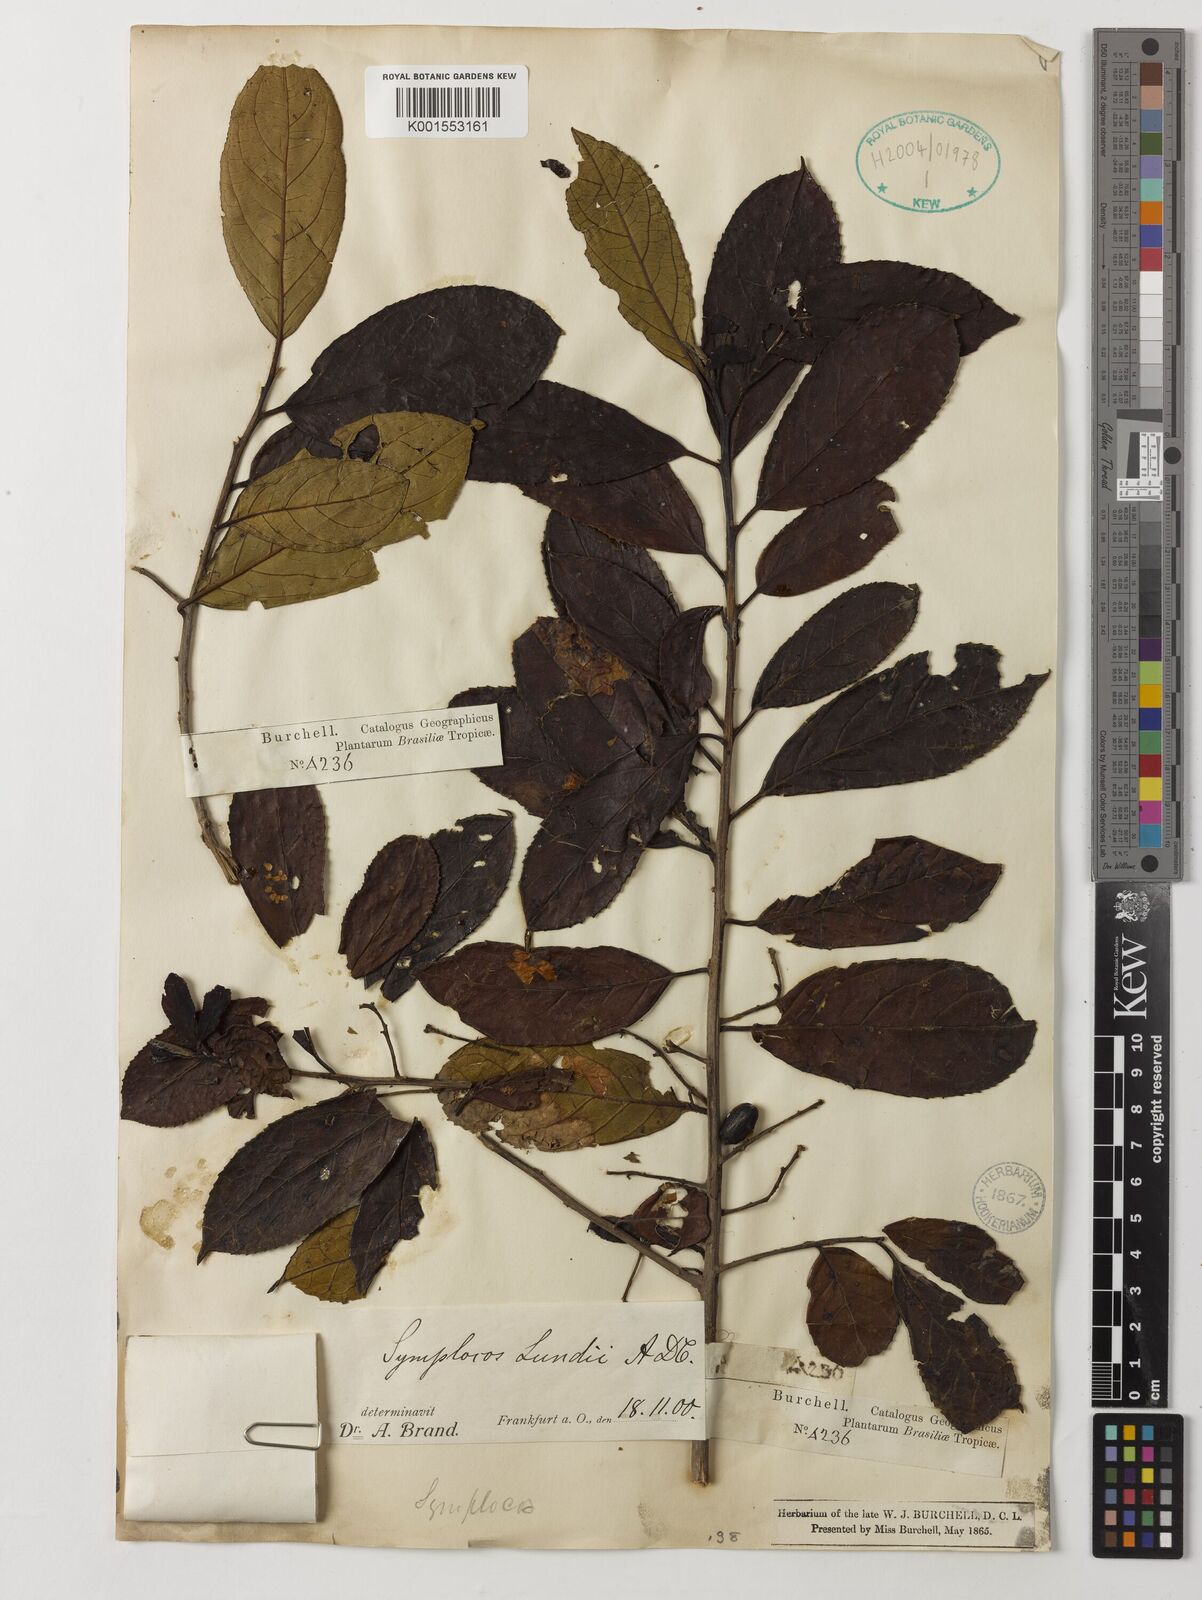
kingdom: Plantae
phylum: Tracheophyta
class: Magnoliopsida
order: Ericales
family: Symplocaceae
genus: Symplocos
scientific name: Symplocos platyphylla
